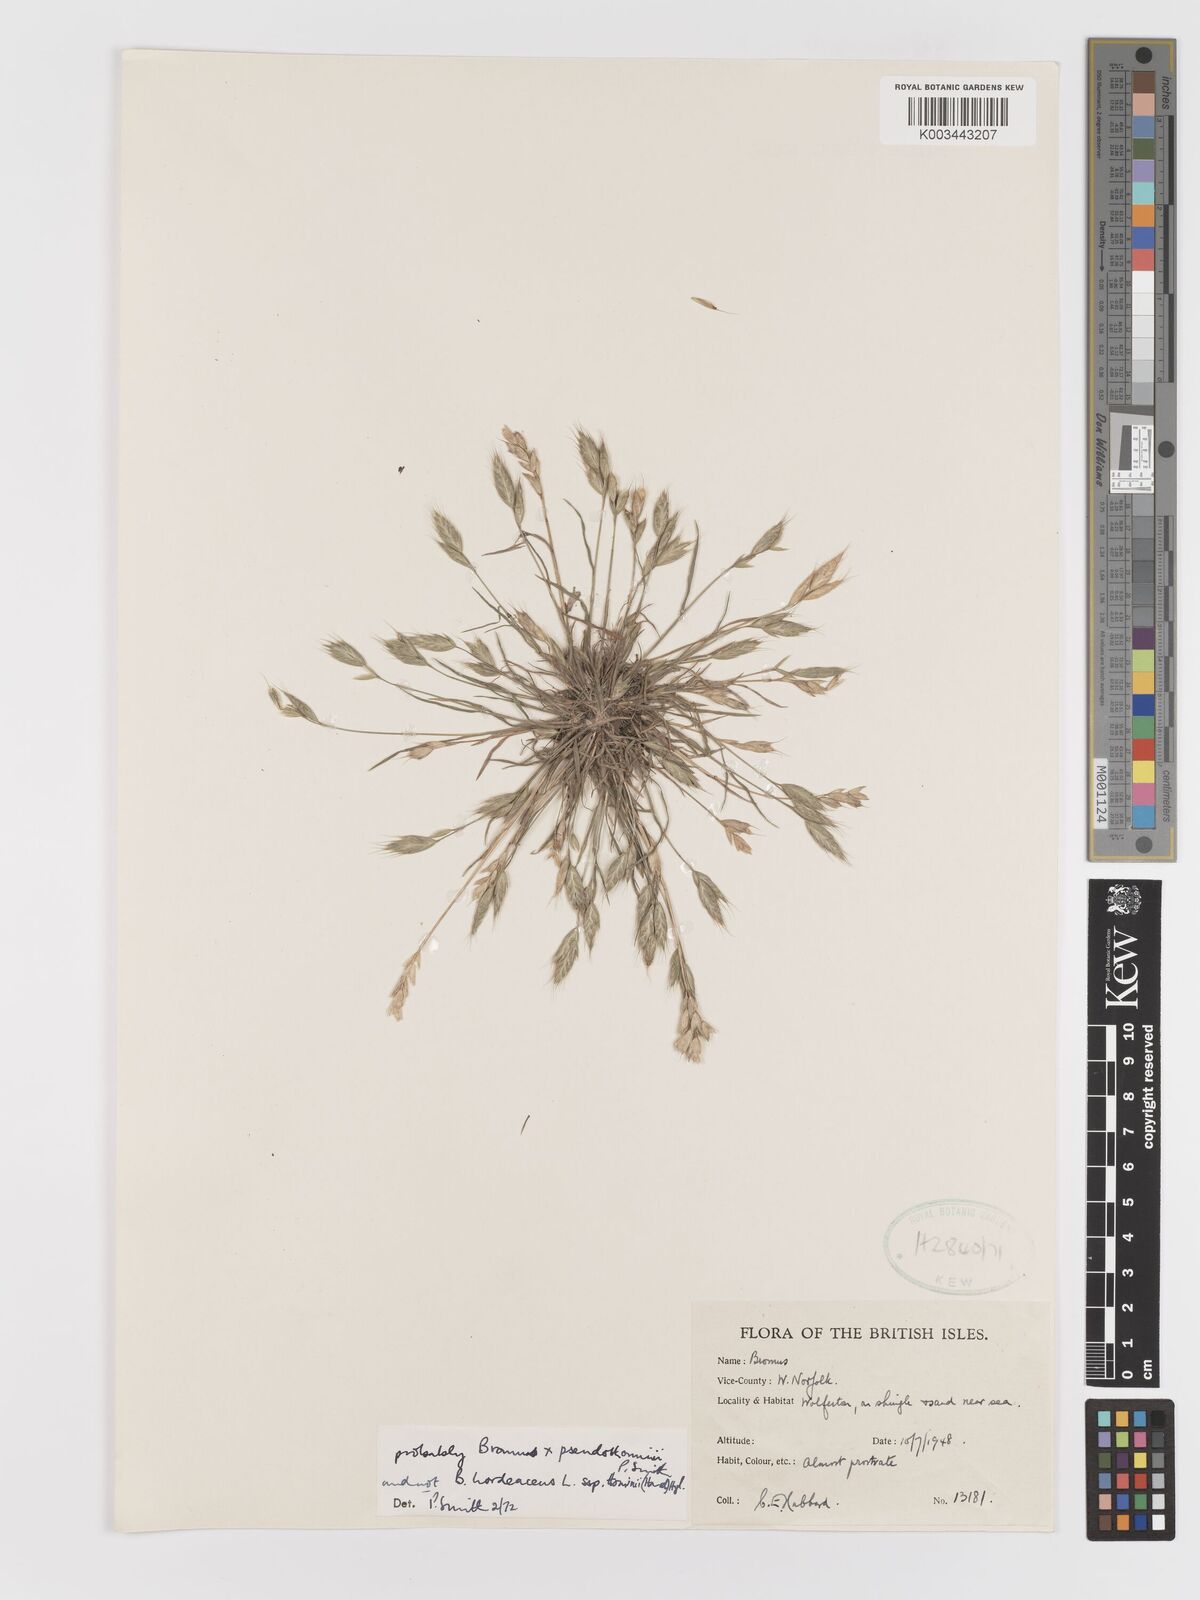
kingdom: Plantae
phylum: Tracheophyta
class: Liliopsida
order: Poales
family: Poaceae
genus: Bromus
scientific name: Bromus
